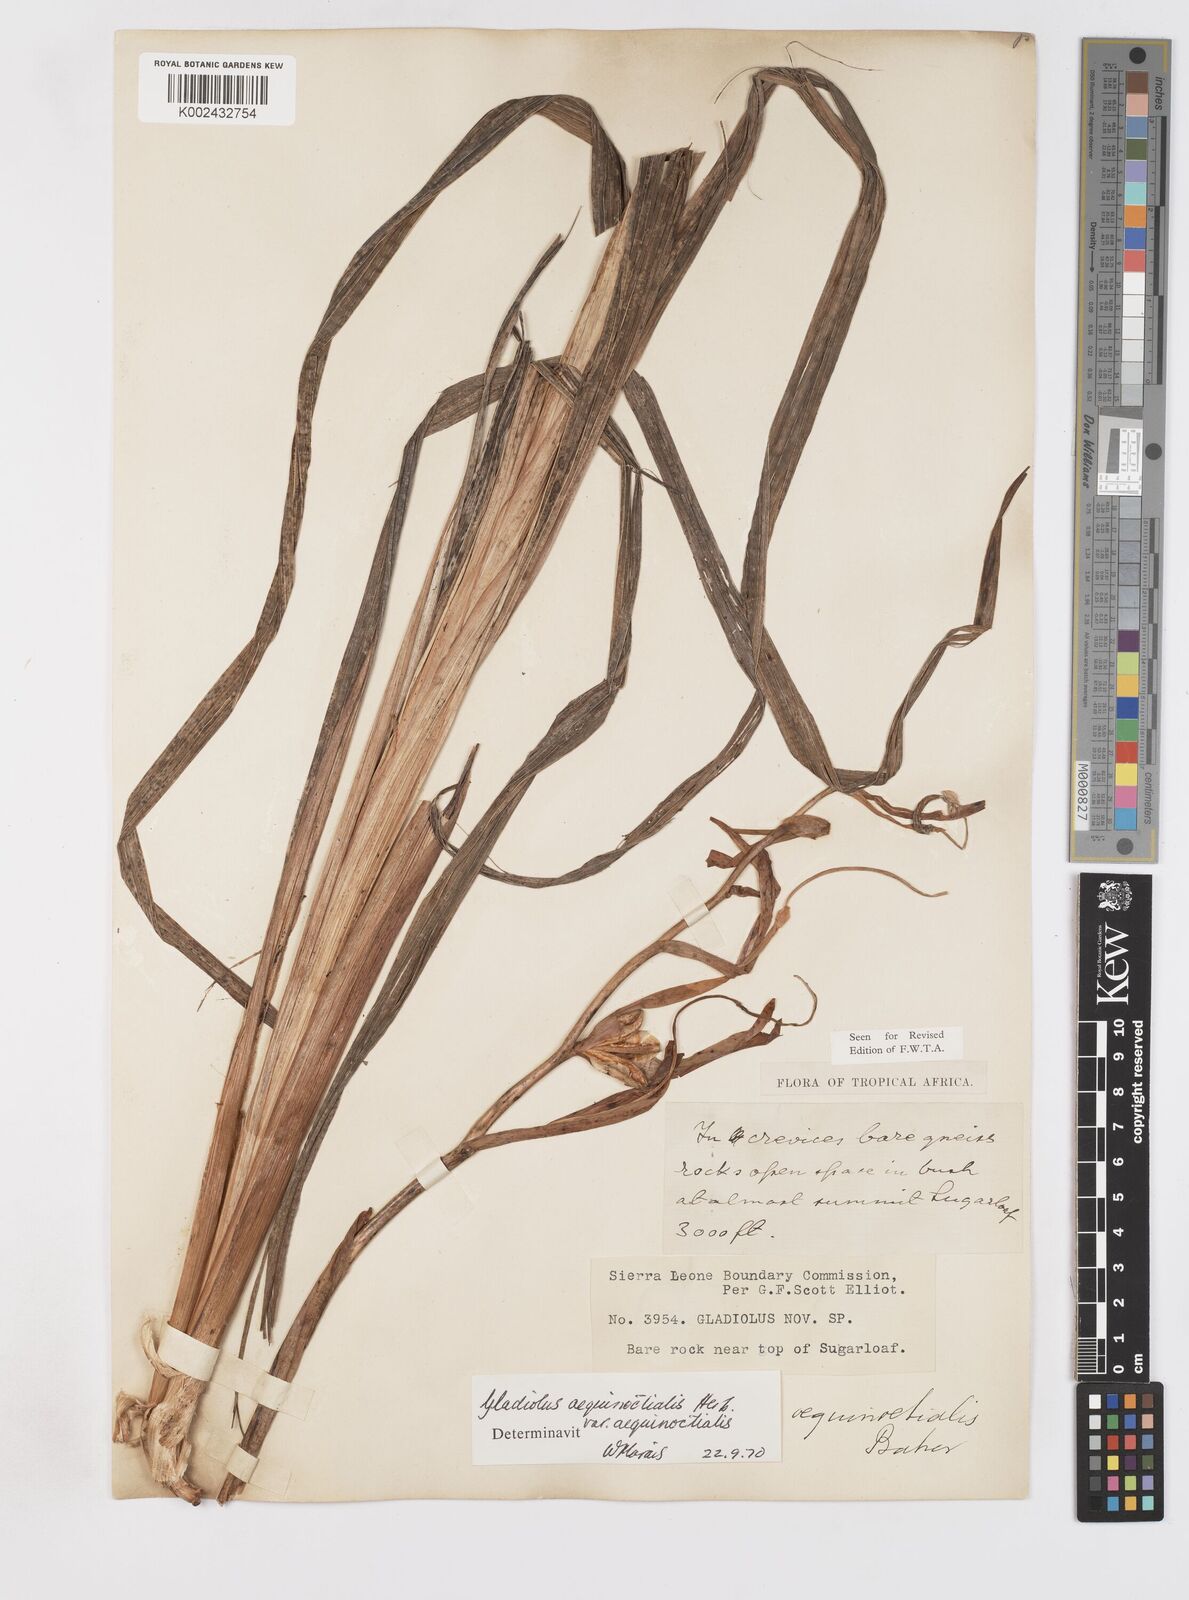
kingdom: Plantae
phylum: Tracheophyta
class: Liliopsida
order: Asparagales
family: Iridaceae
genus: Gladiolus
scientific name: Gladiolus aequinoctialis
